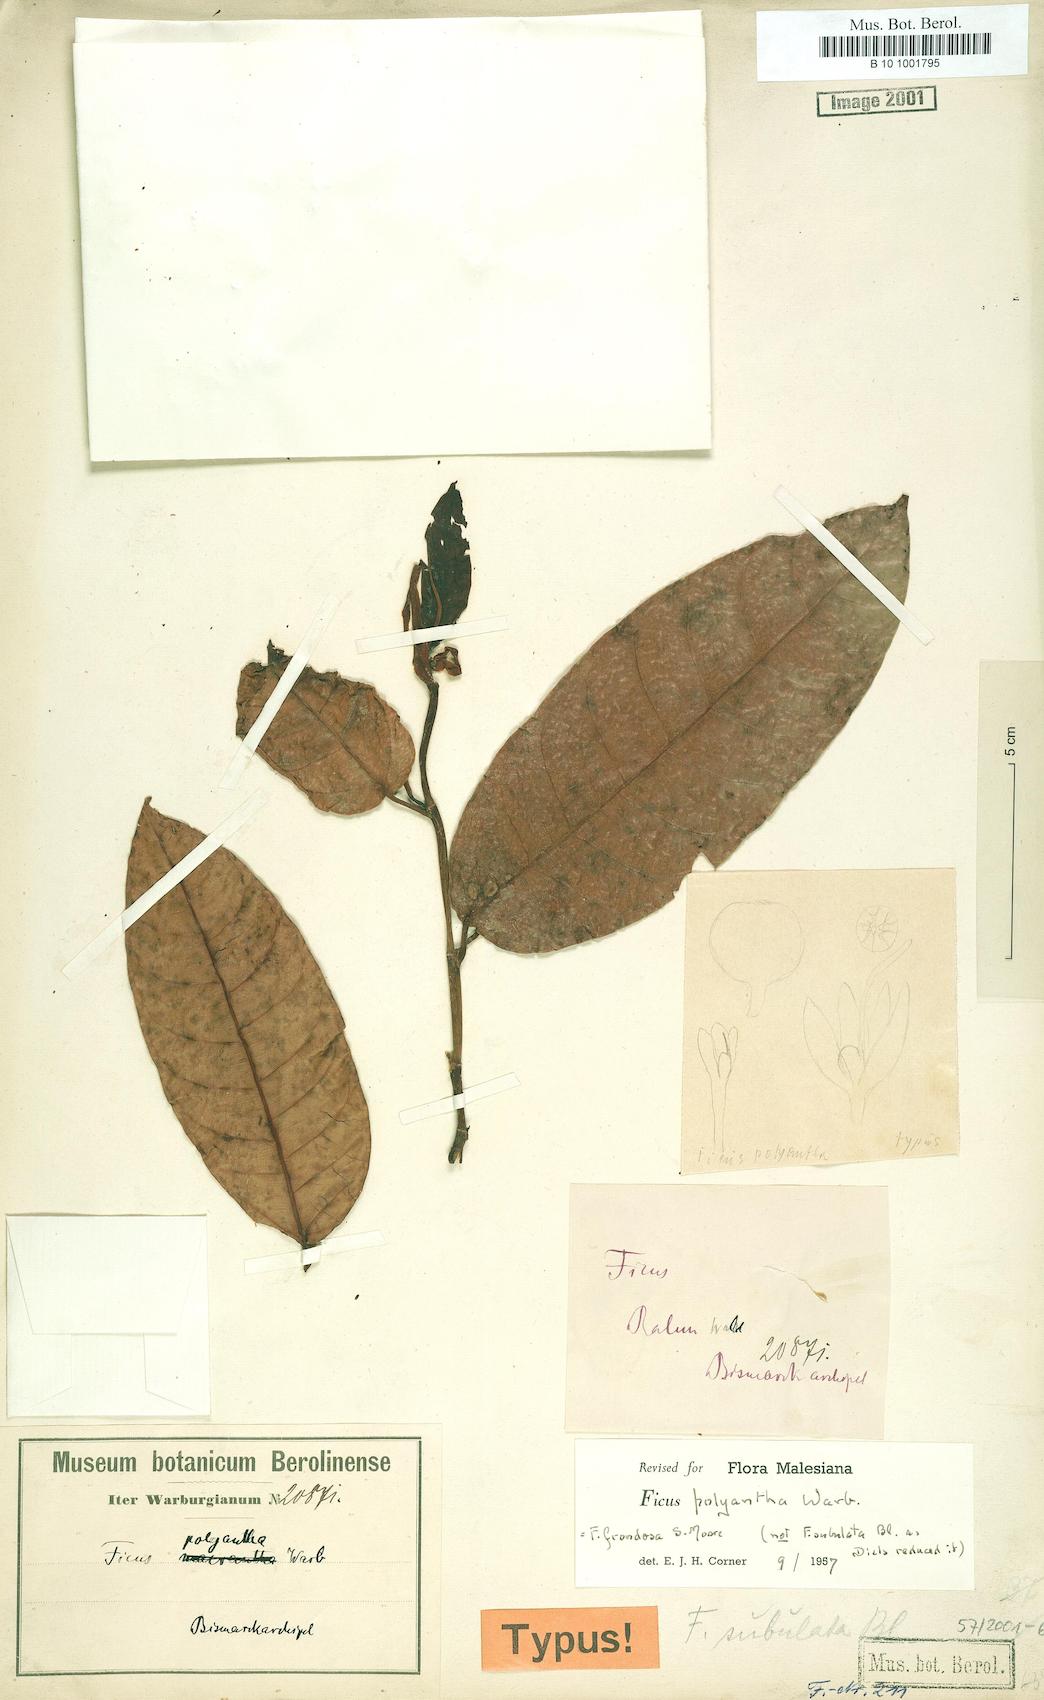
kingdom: Plantae
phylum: Tracheophyta
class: Magnoliopsida
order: Rosales
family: Moraceae
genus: Ficus
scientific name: Ficus polyantha
